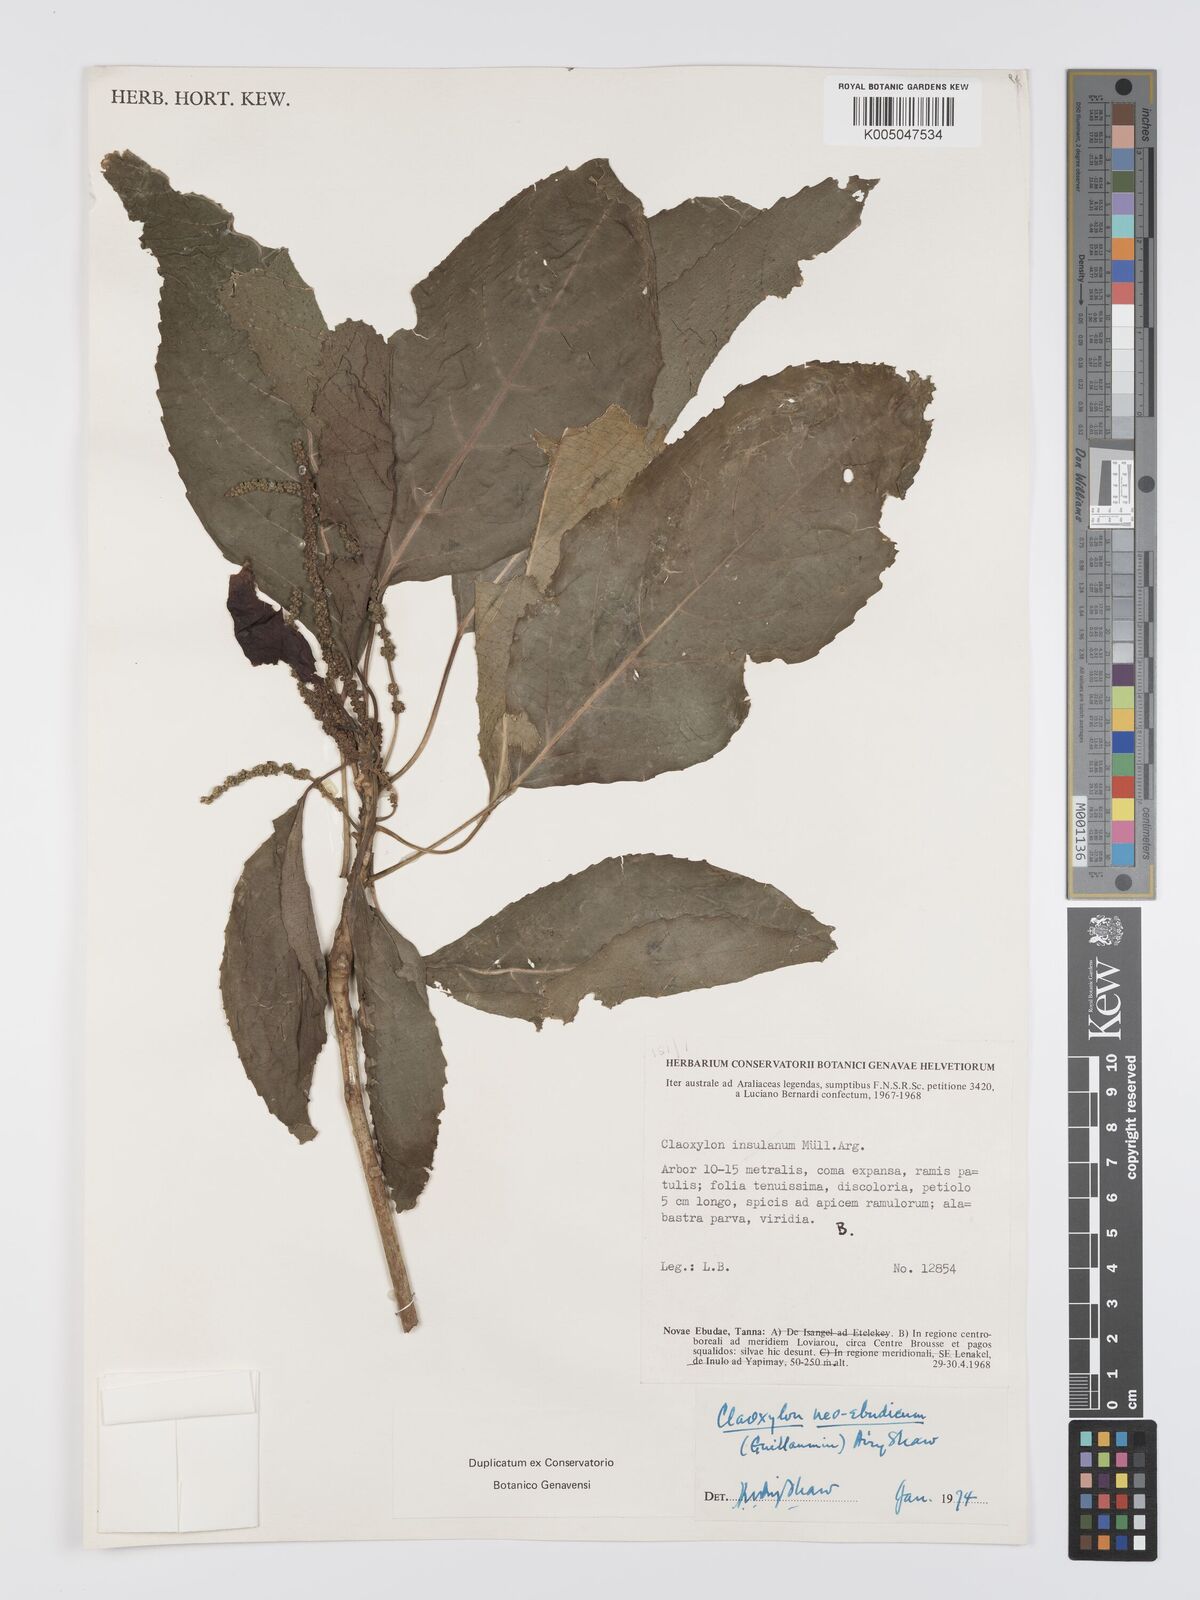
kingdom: Plantae
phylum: Tracheophyta
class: Magnoliopsida
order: Malpighiales
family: Euphorbiaceae
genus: Claoxylon
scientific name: Claoxylon neoebudicum
